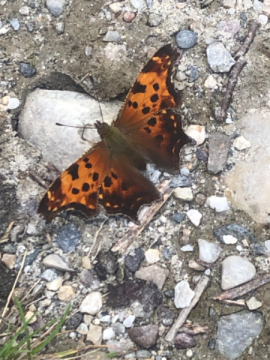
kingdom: Animalia
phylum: Arthropoda
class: Insecta
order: Lepidoptera
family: Nymphalidae
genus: Polygonia
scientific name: Polygonia comma
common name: Eastern Comma
